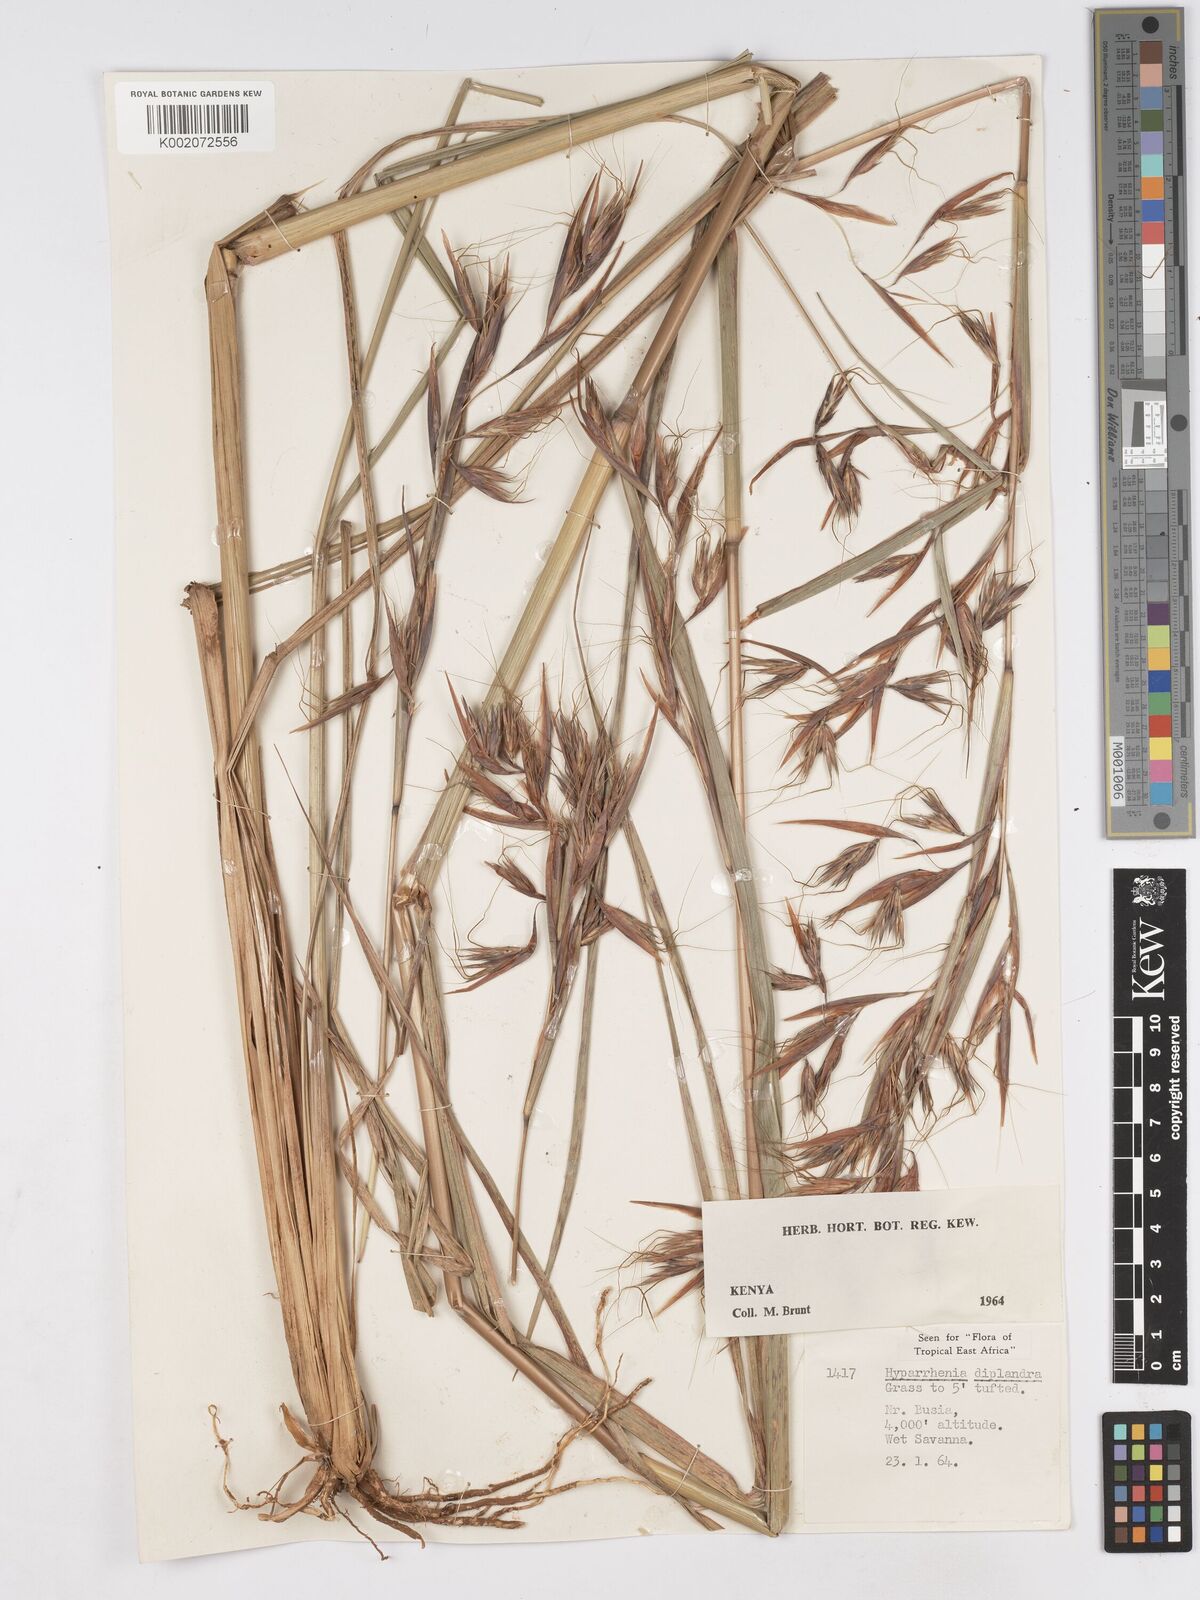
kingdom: Plantae
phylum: Tracheophyta
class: Liliopsida
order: Poales
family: Poaceae
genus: Hyparrhenia
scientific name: Hyparrhenia diplandra
